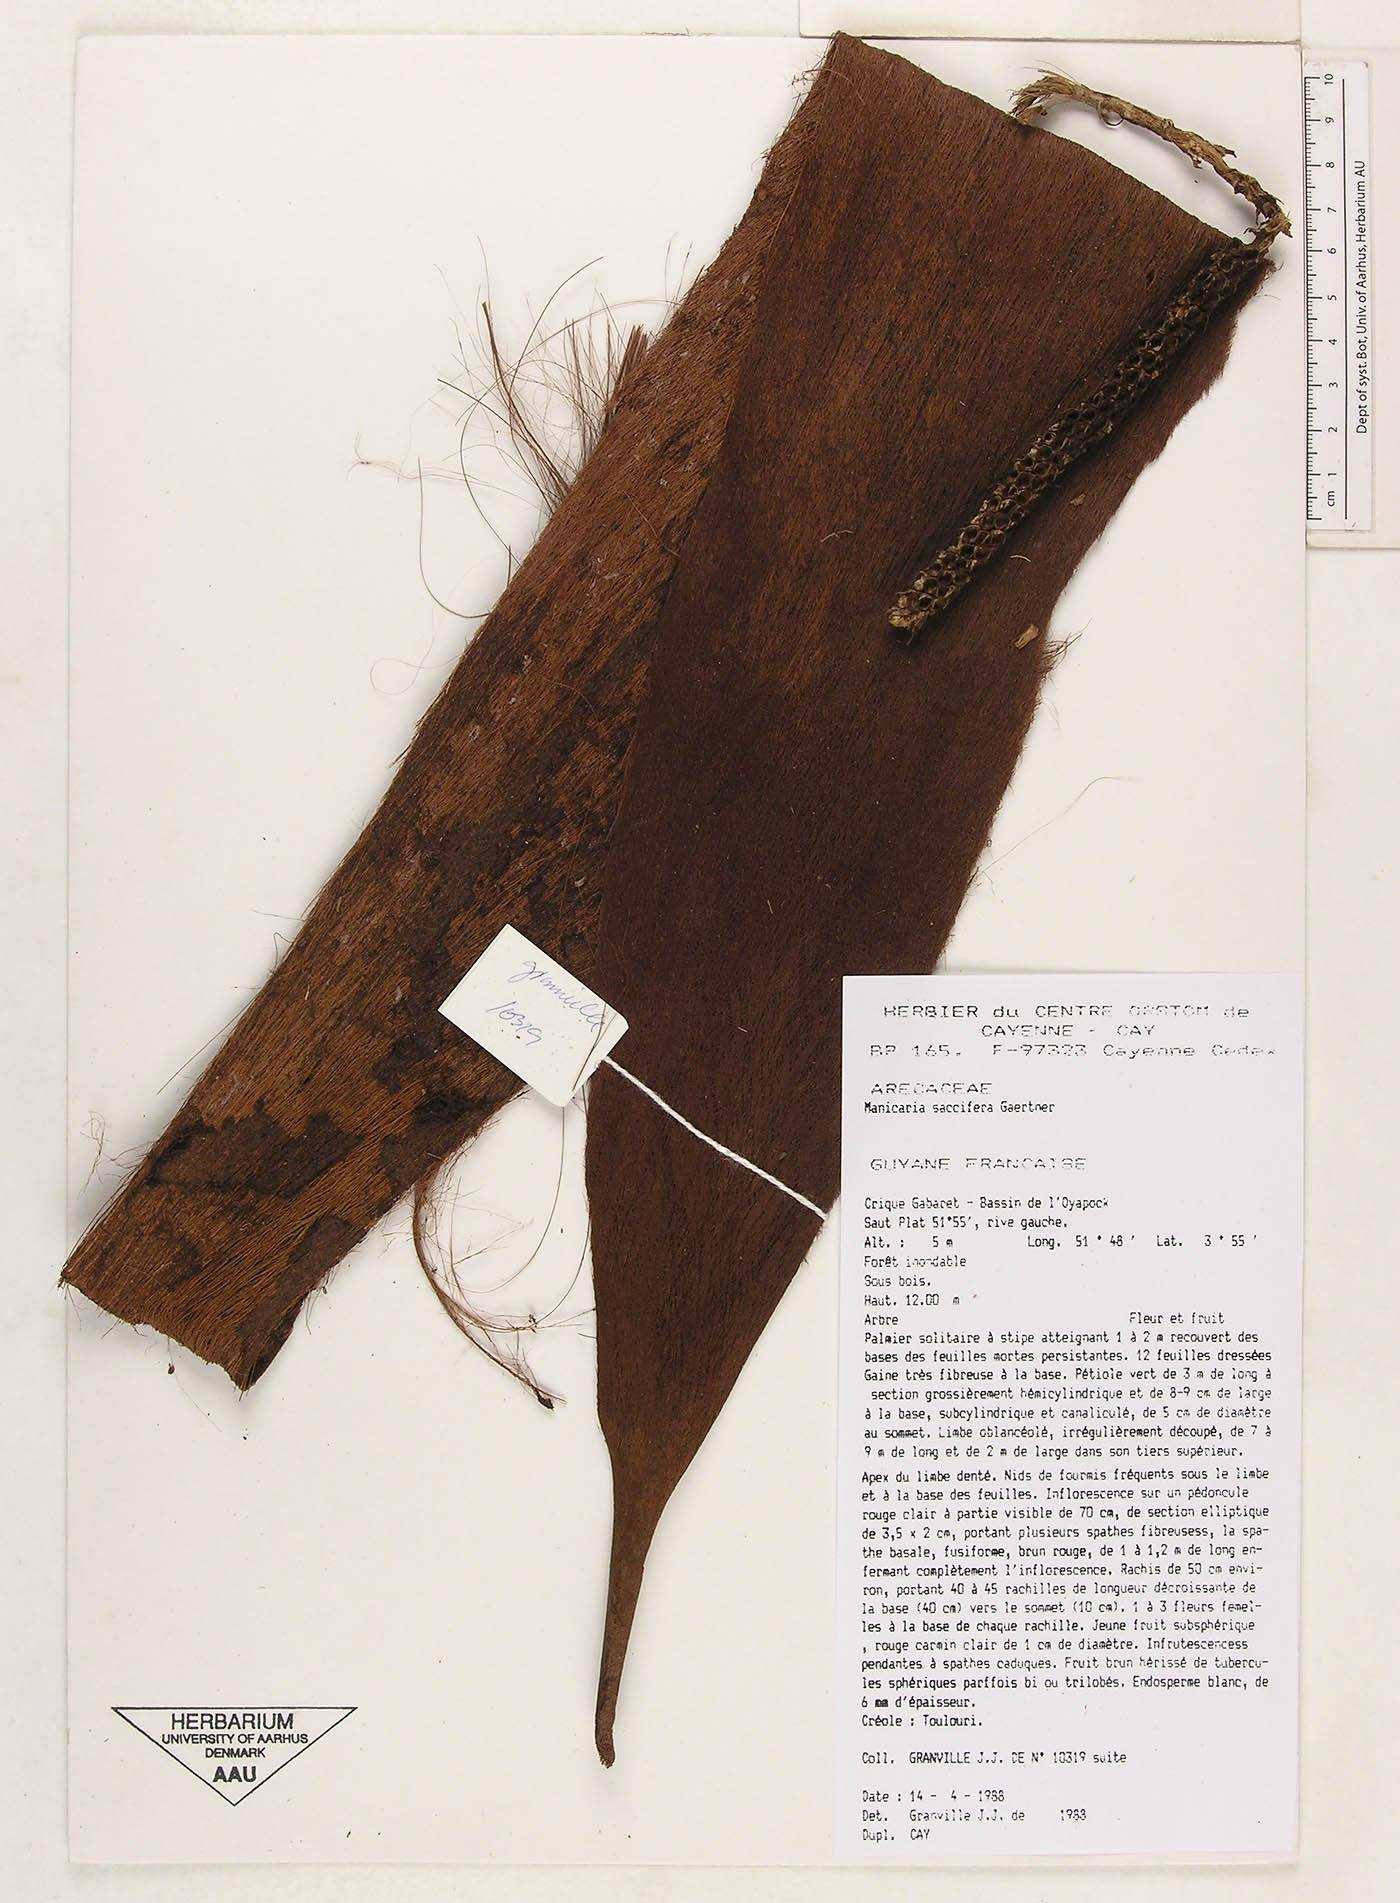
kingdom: Plantae
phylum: Tracheophyta
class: Liliopsida
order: Arecales
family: Arecaceae
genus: Manicaria
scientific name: Manicaria saccifera
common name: Sea coconut
